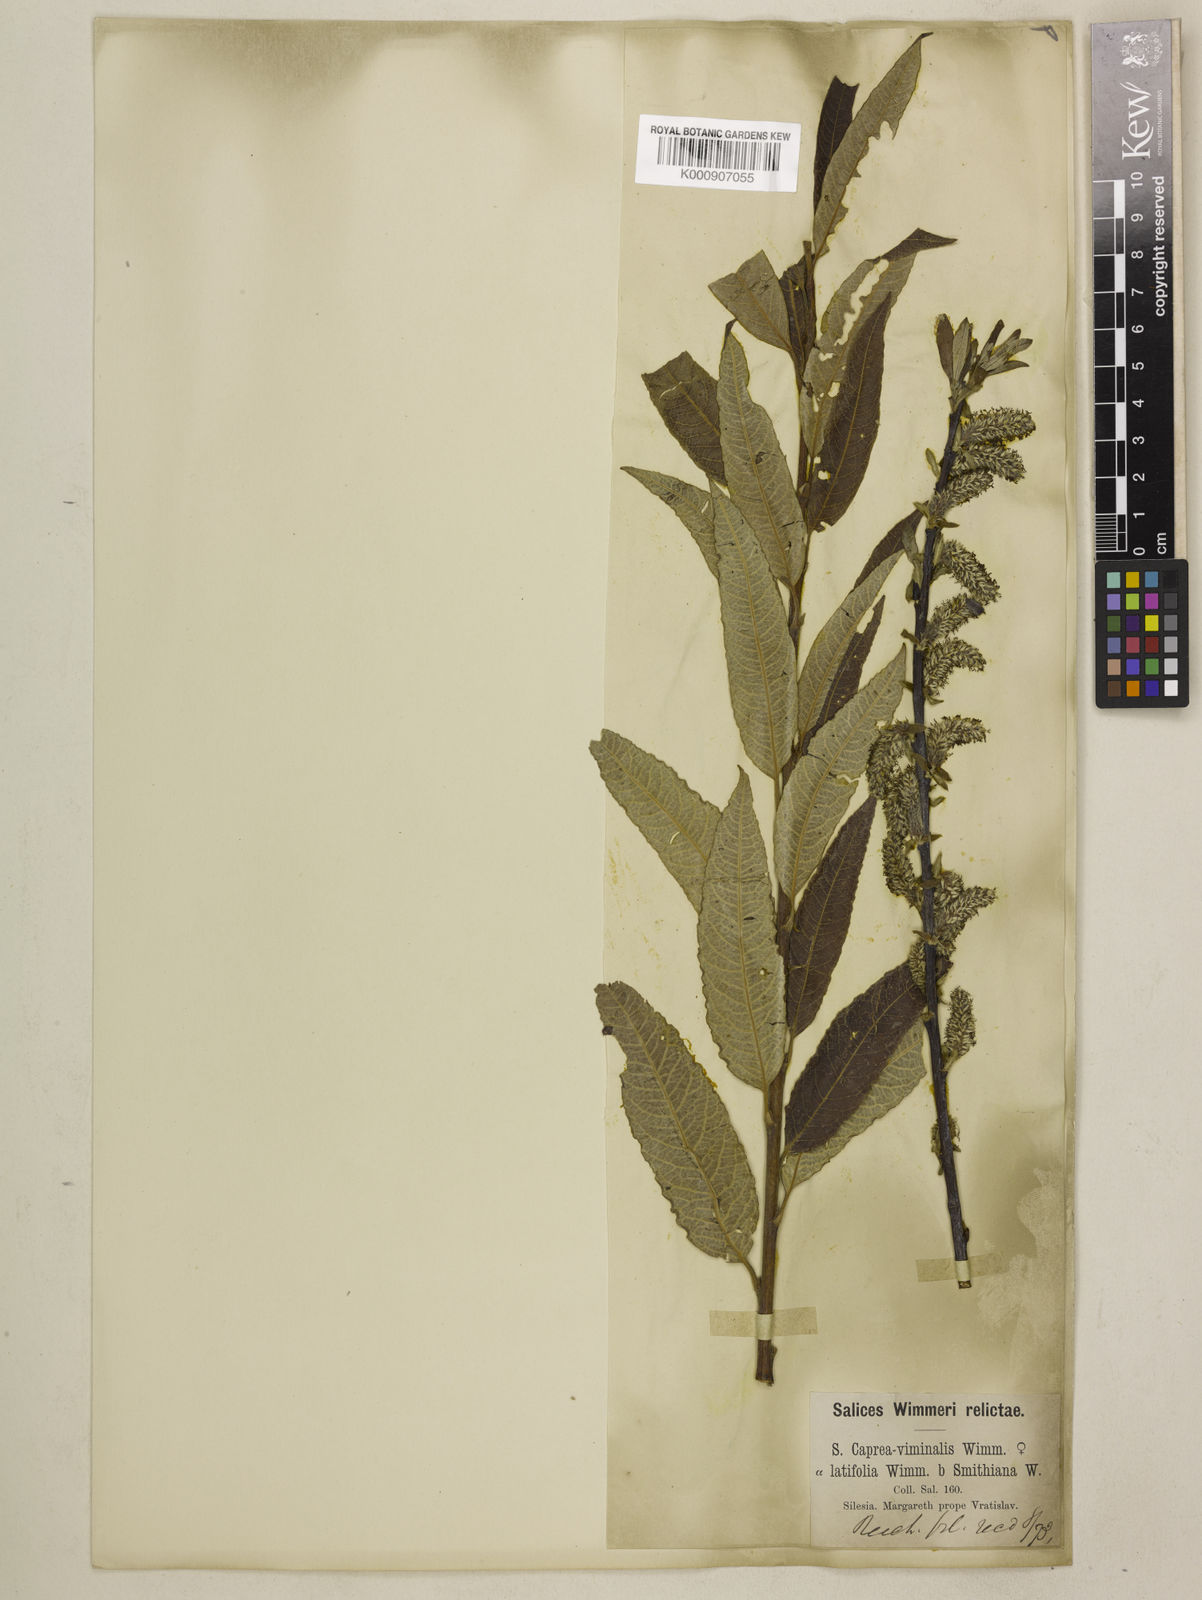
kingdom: Plantae
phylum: Tracheophyta
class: Magnoliopsida
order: Malpighiales
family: Salicaceae
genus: Salix
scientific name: Salix
